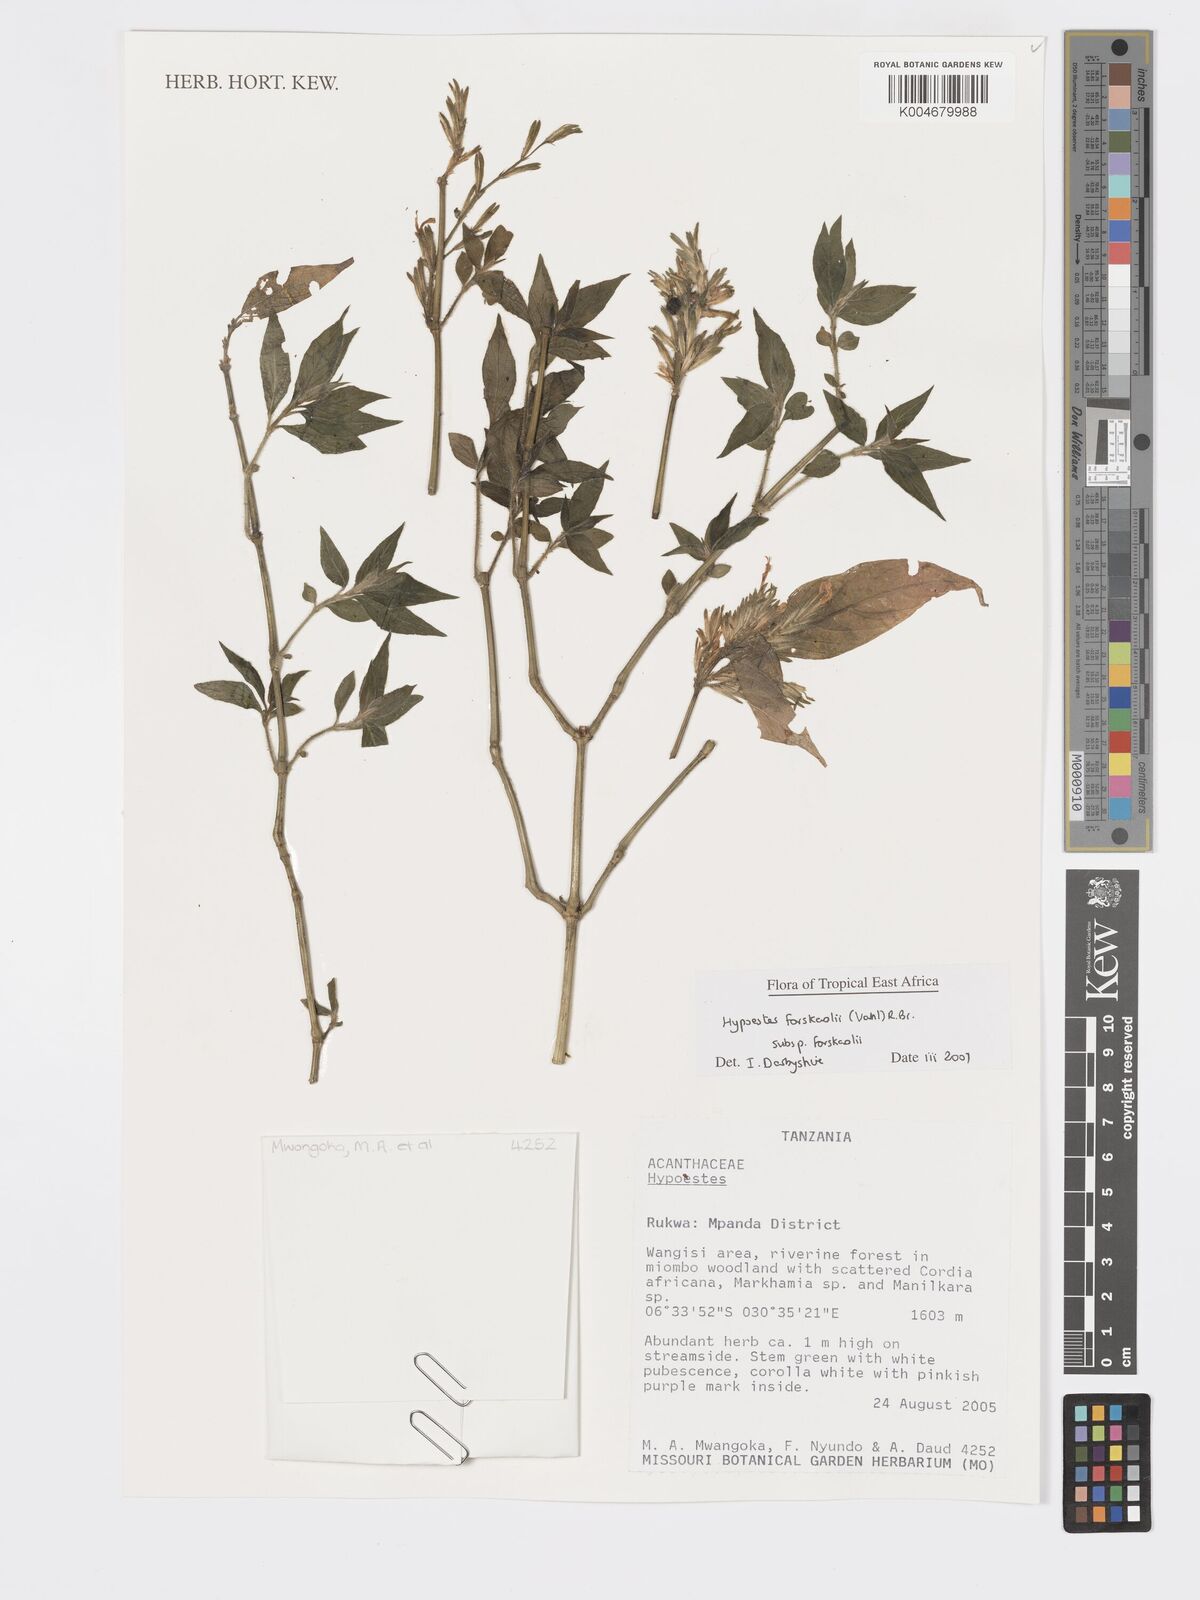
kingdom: Plantae
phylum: Tracheophyta
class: Magnoliopsida
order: Lamiales
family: Acanthaceae
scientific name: Acanthaceae
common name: Acanthaceae
